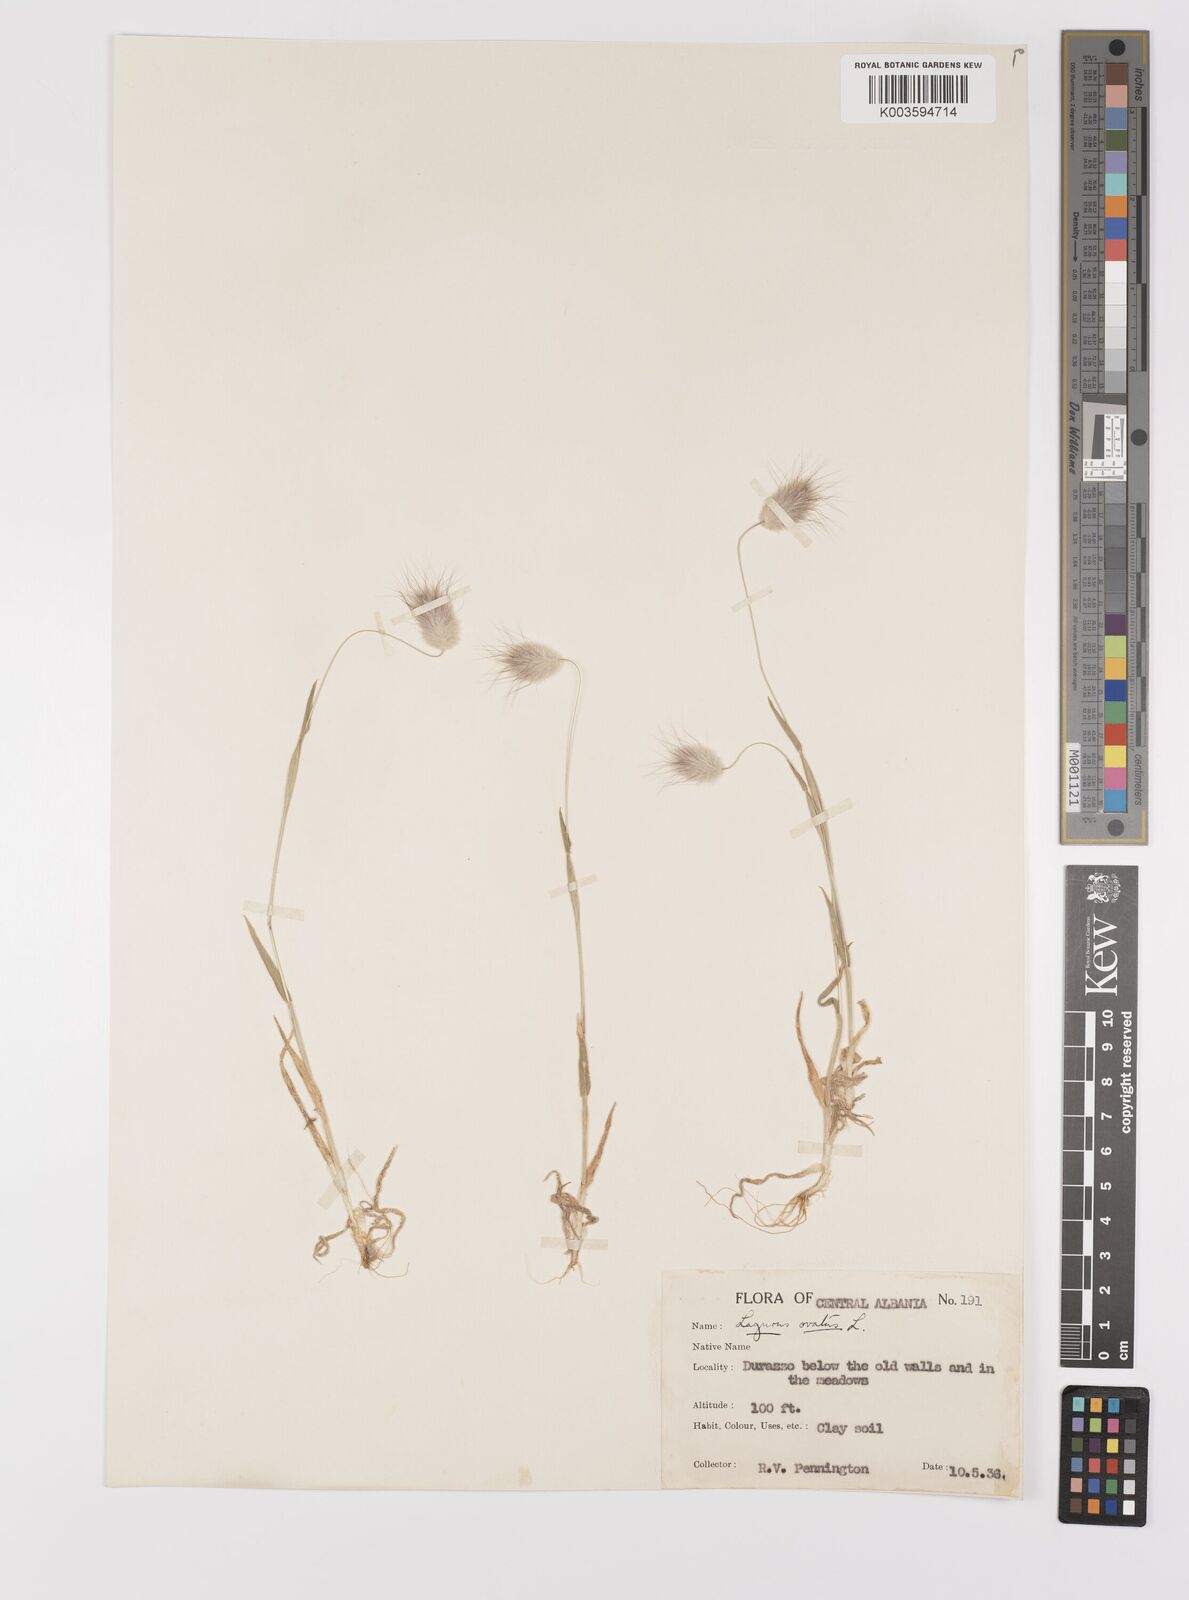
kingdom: Plantae
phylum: Tracheophyta
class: Liliopsida
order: Poales
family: Poaceae
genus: Lagurus
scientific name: Lagurus ovatus
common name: Hare's-tail
